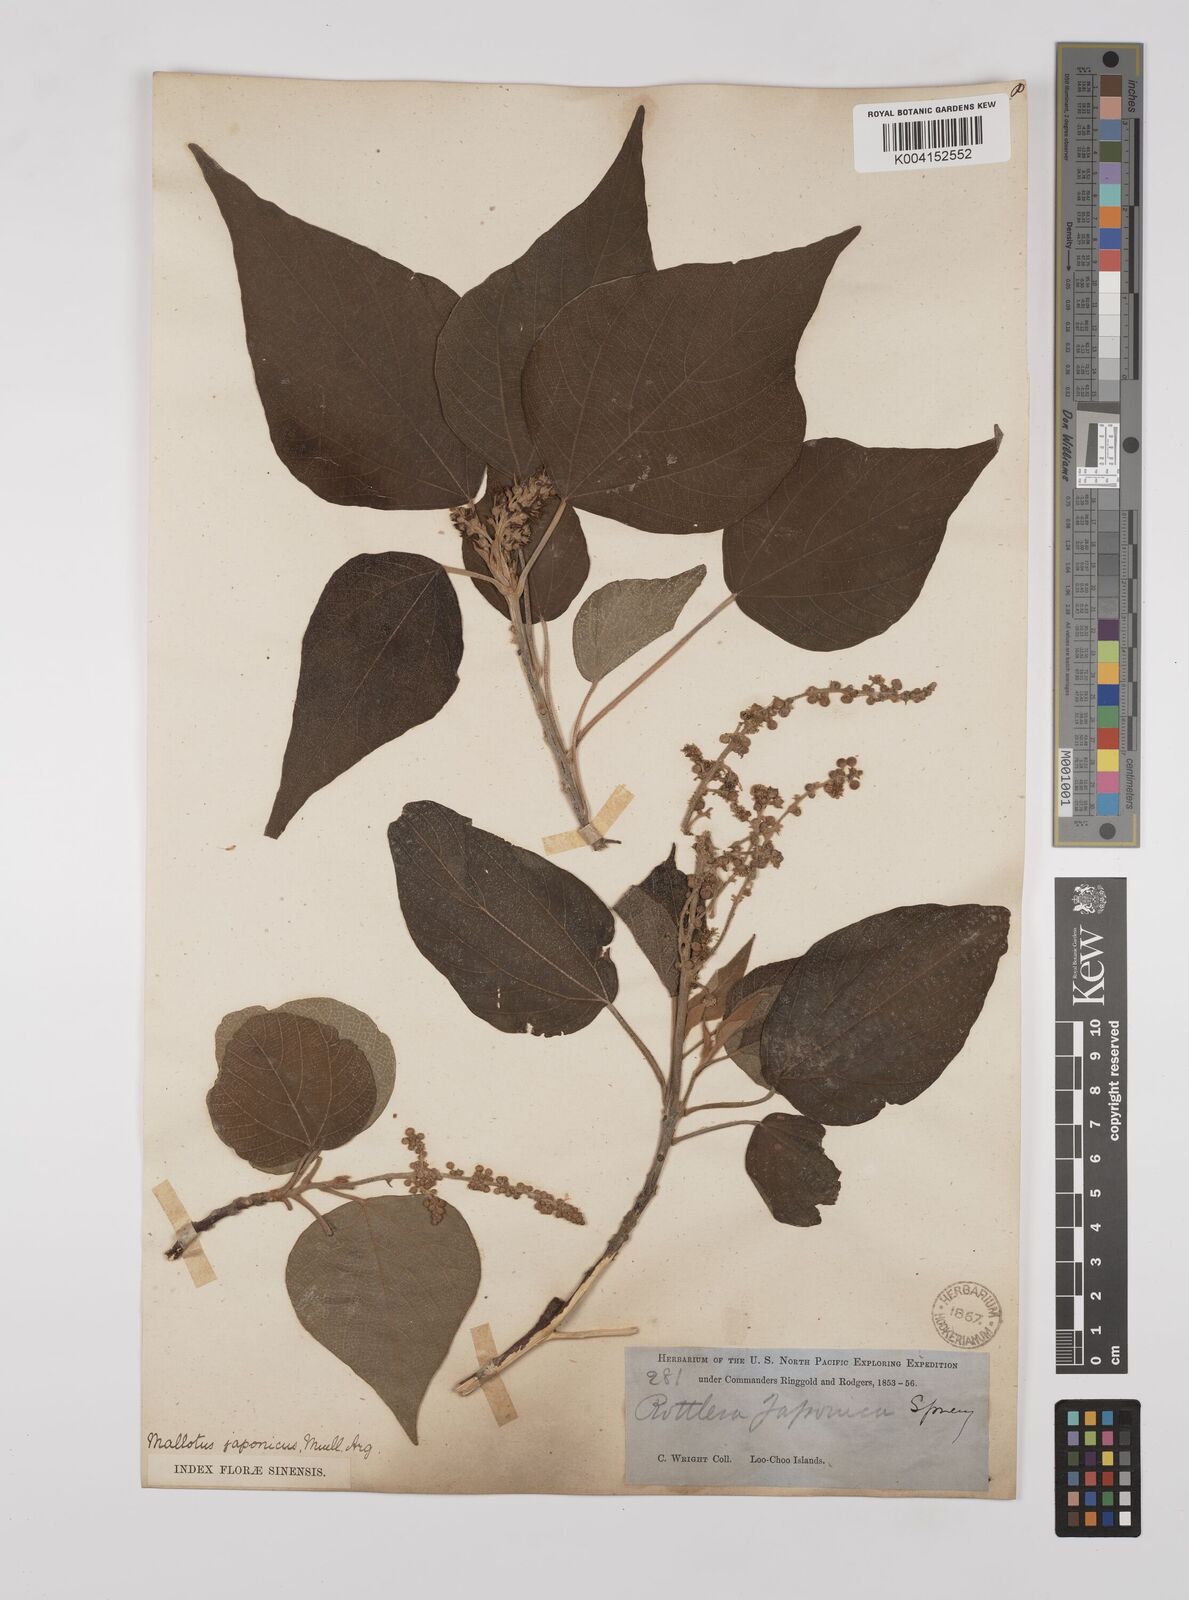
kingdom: Plantae
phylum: Tracheophyta
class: Magnoliopsida
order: Malpighiales
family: Euphorbiaceae
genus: Mallotus
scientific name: Mallotus japonicus
